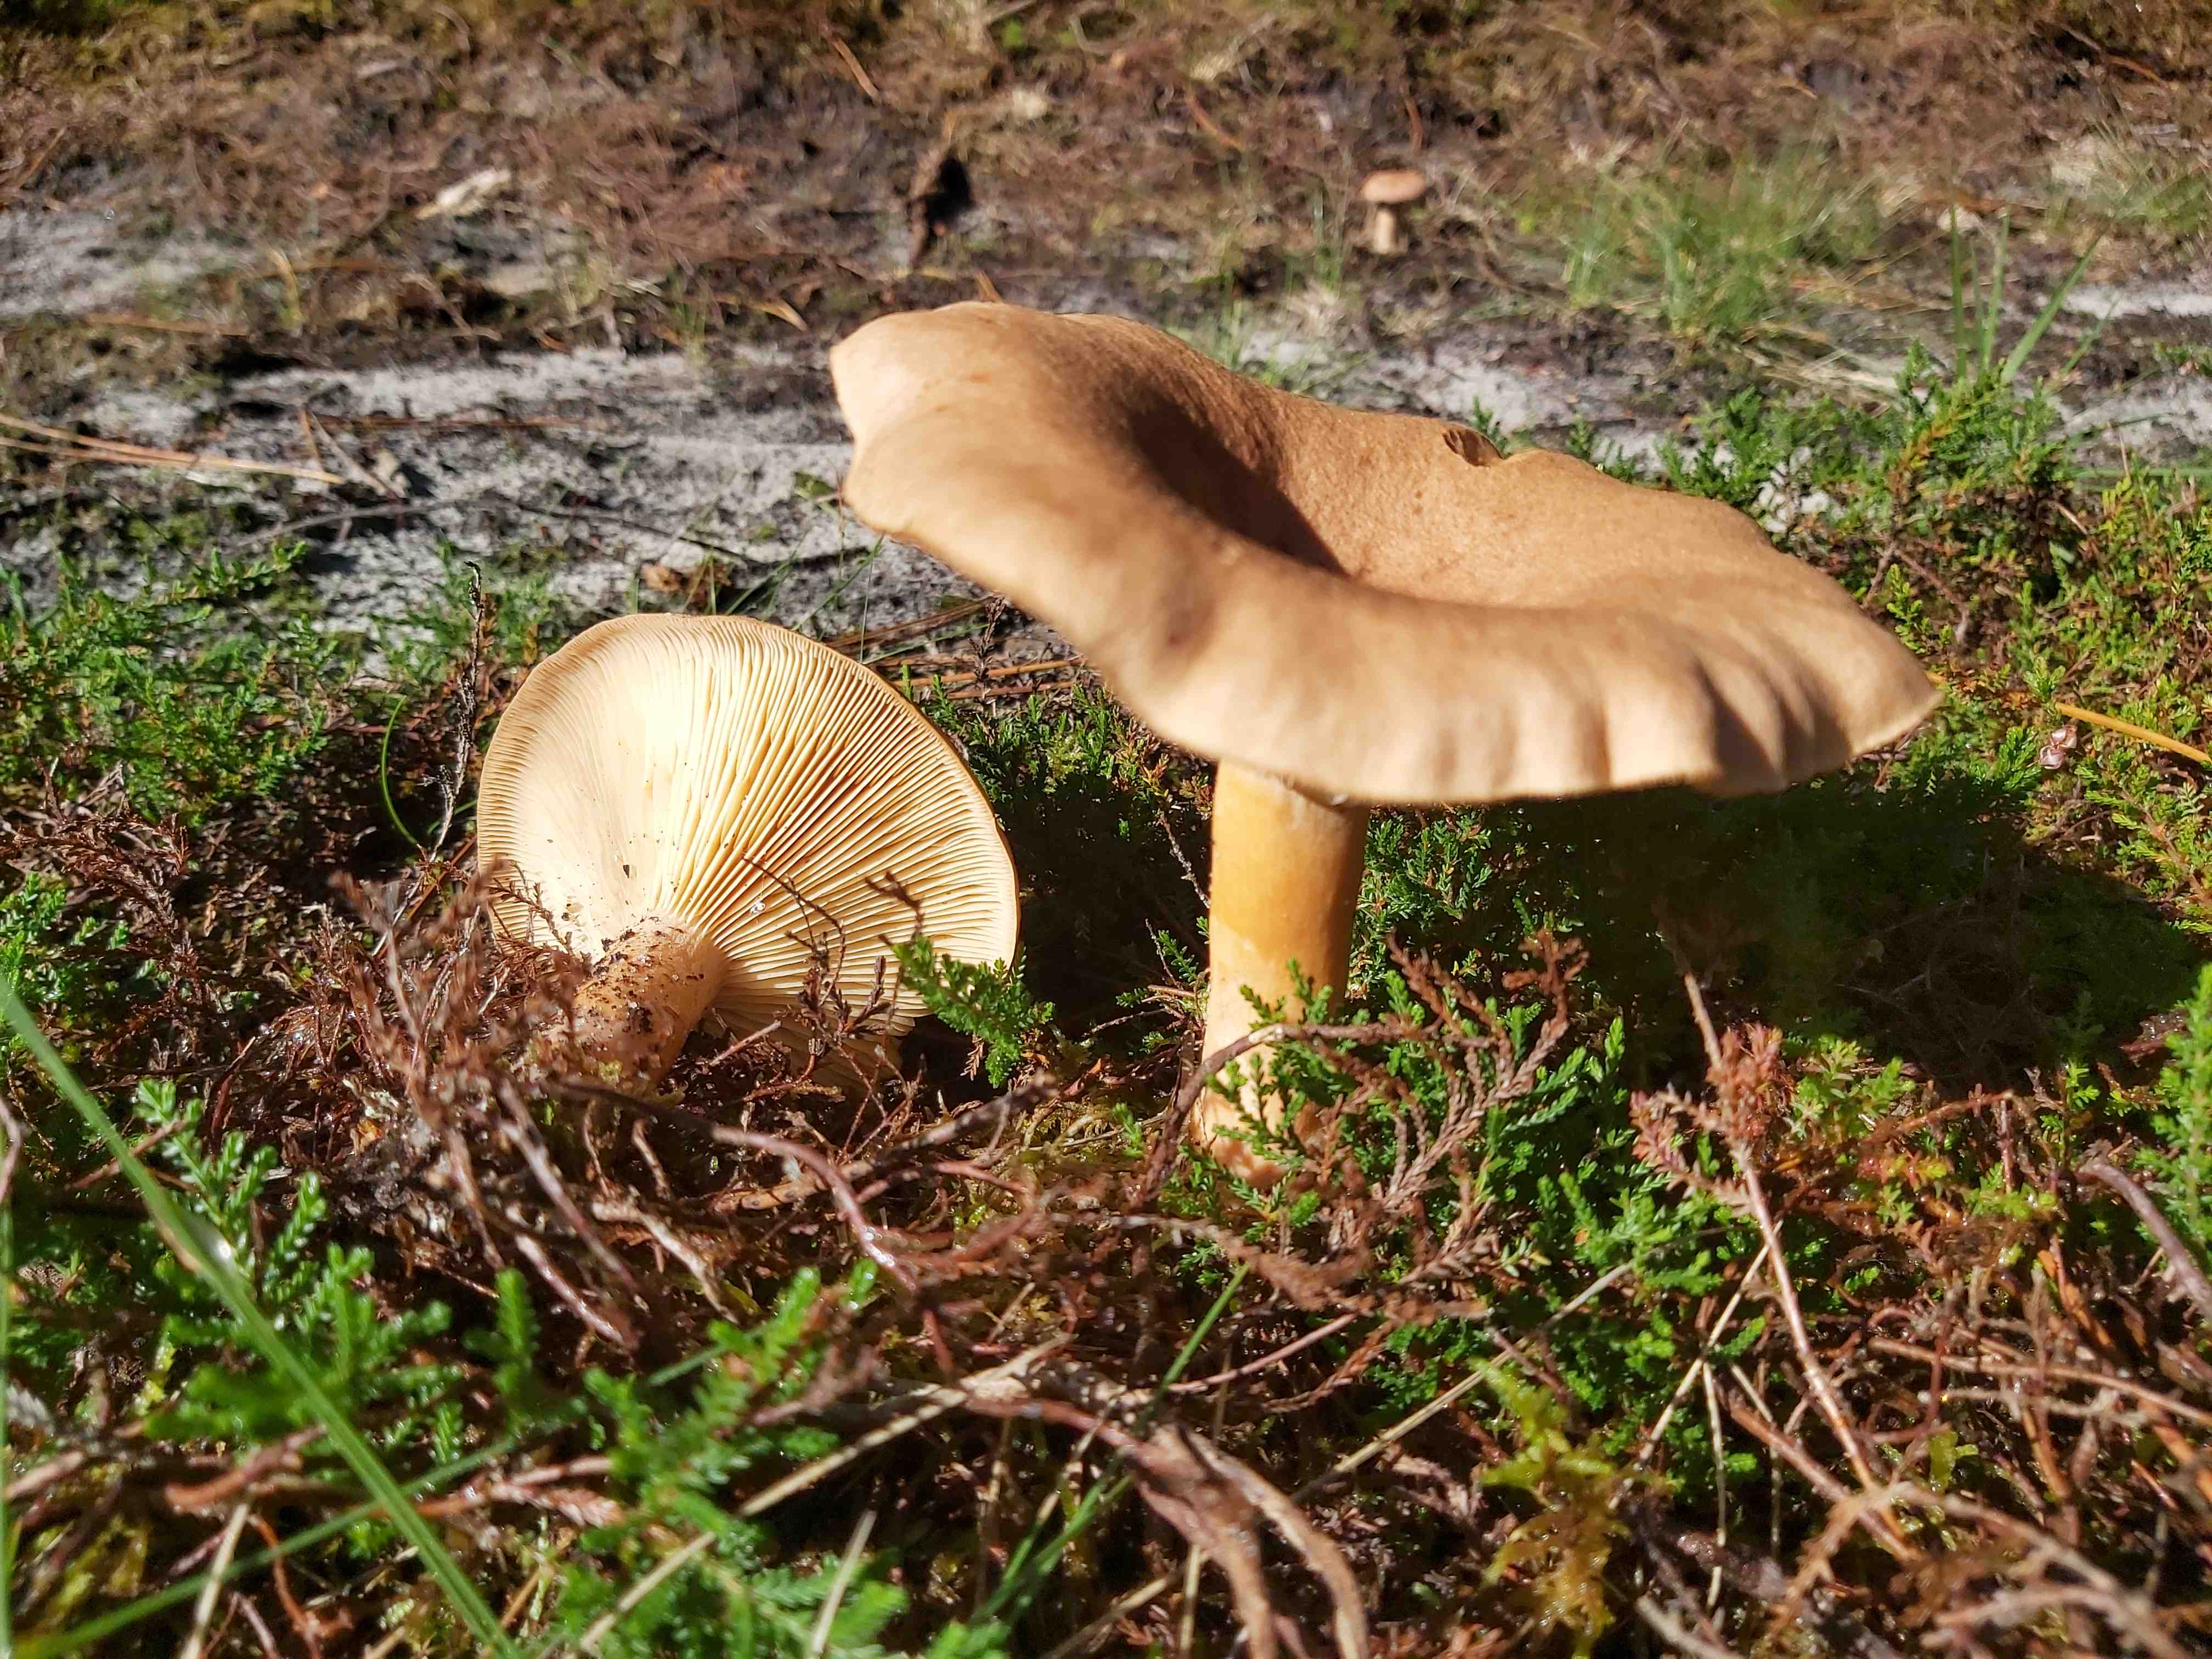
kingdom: Fungi
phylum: Basidiomycota
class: Agaricomycetes
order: Russulales
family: Russulaceae
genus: Lactarius
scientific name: Lactarius helvus
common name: mose-mælkehat
